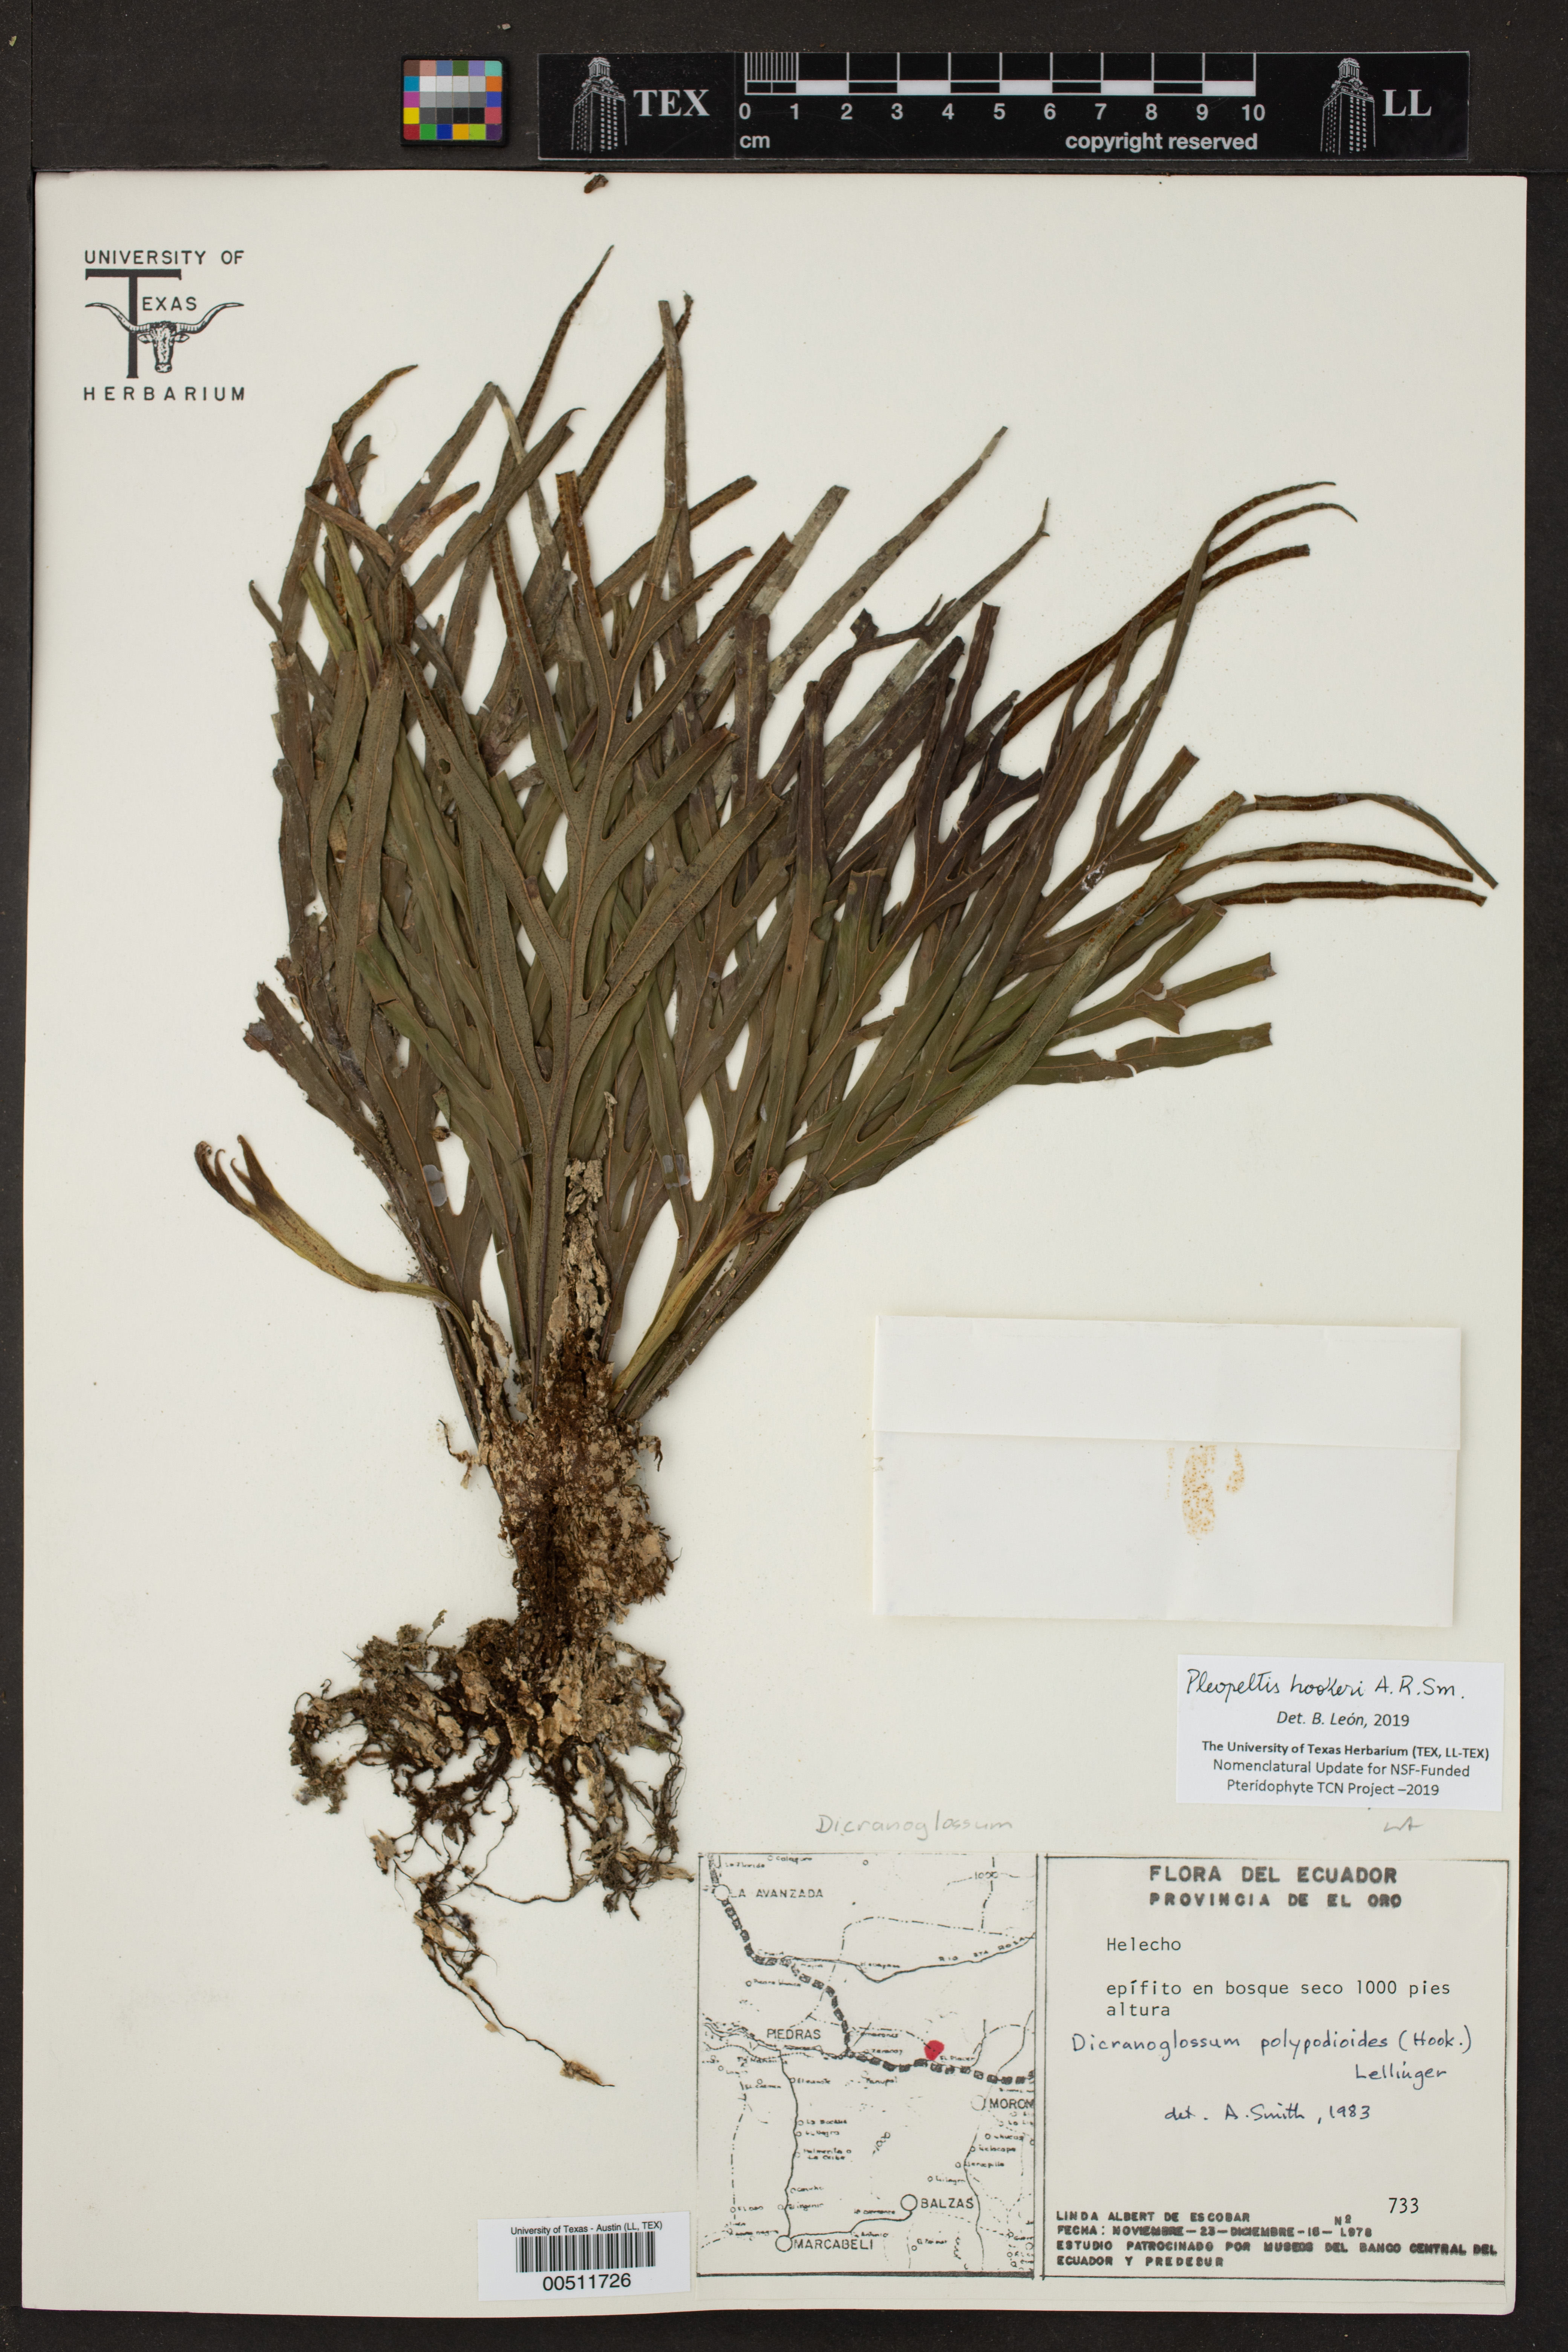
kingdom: Plantae
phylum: Tracheophyta
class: Polypodiopsida
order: Polypodiales
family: Polypodiaceae
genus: Pleopeltis
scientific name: Pleopeltis hookeri
